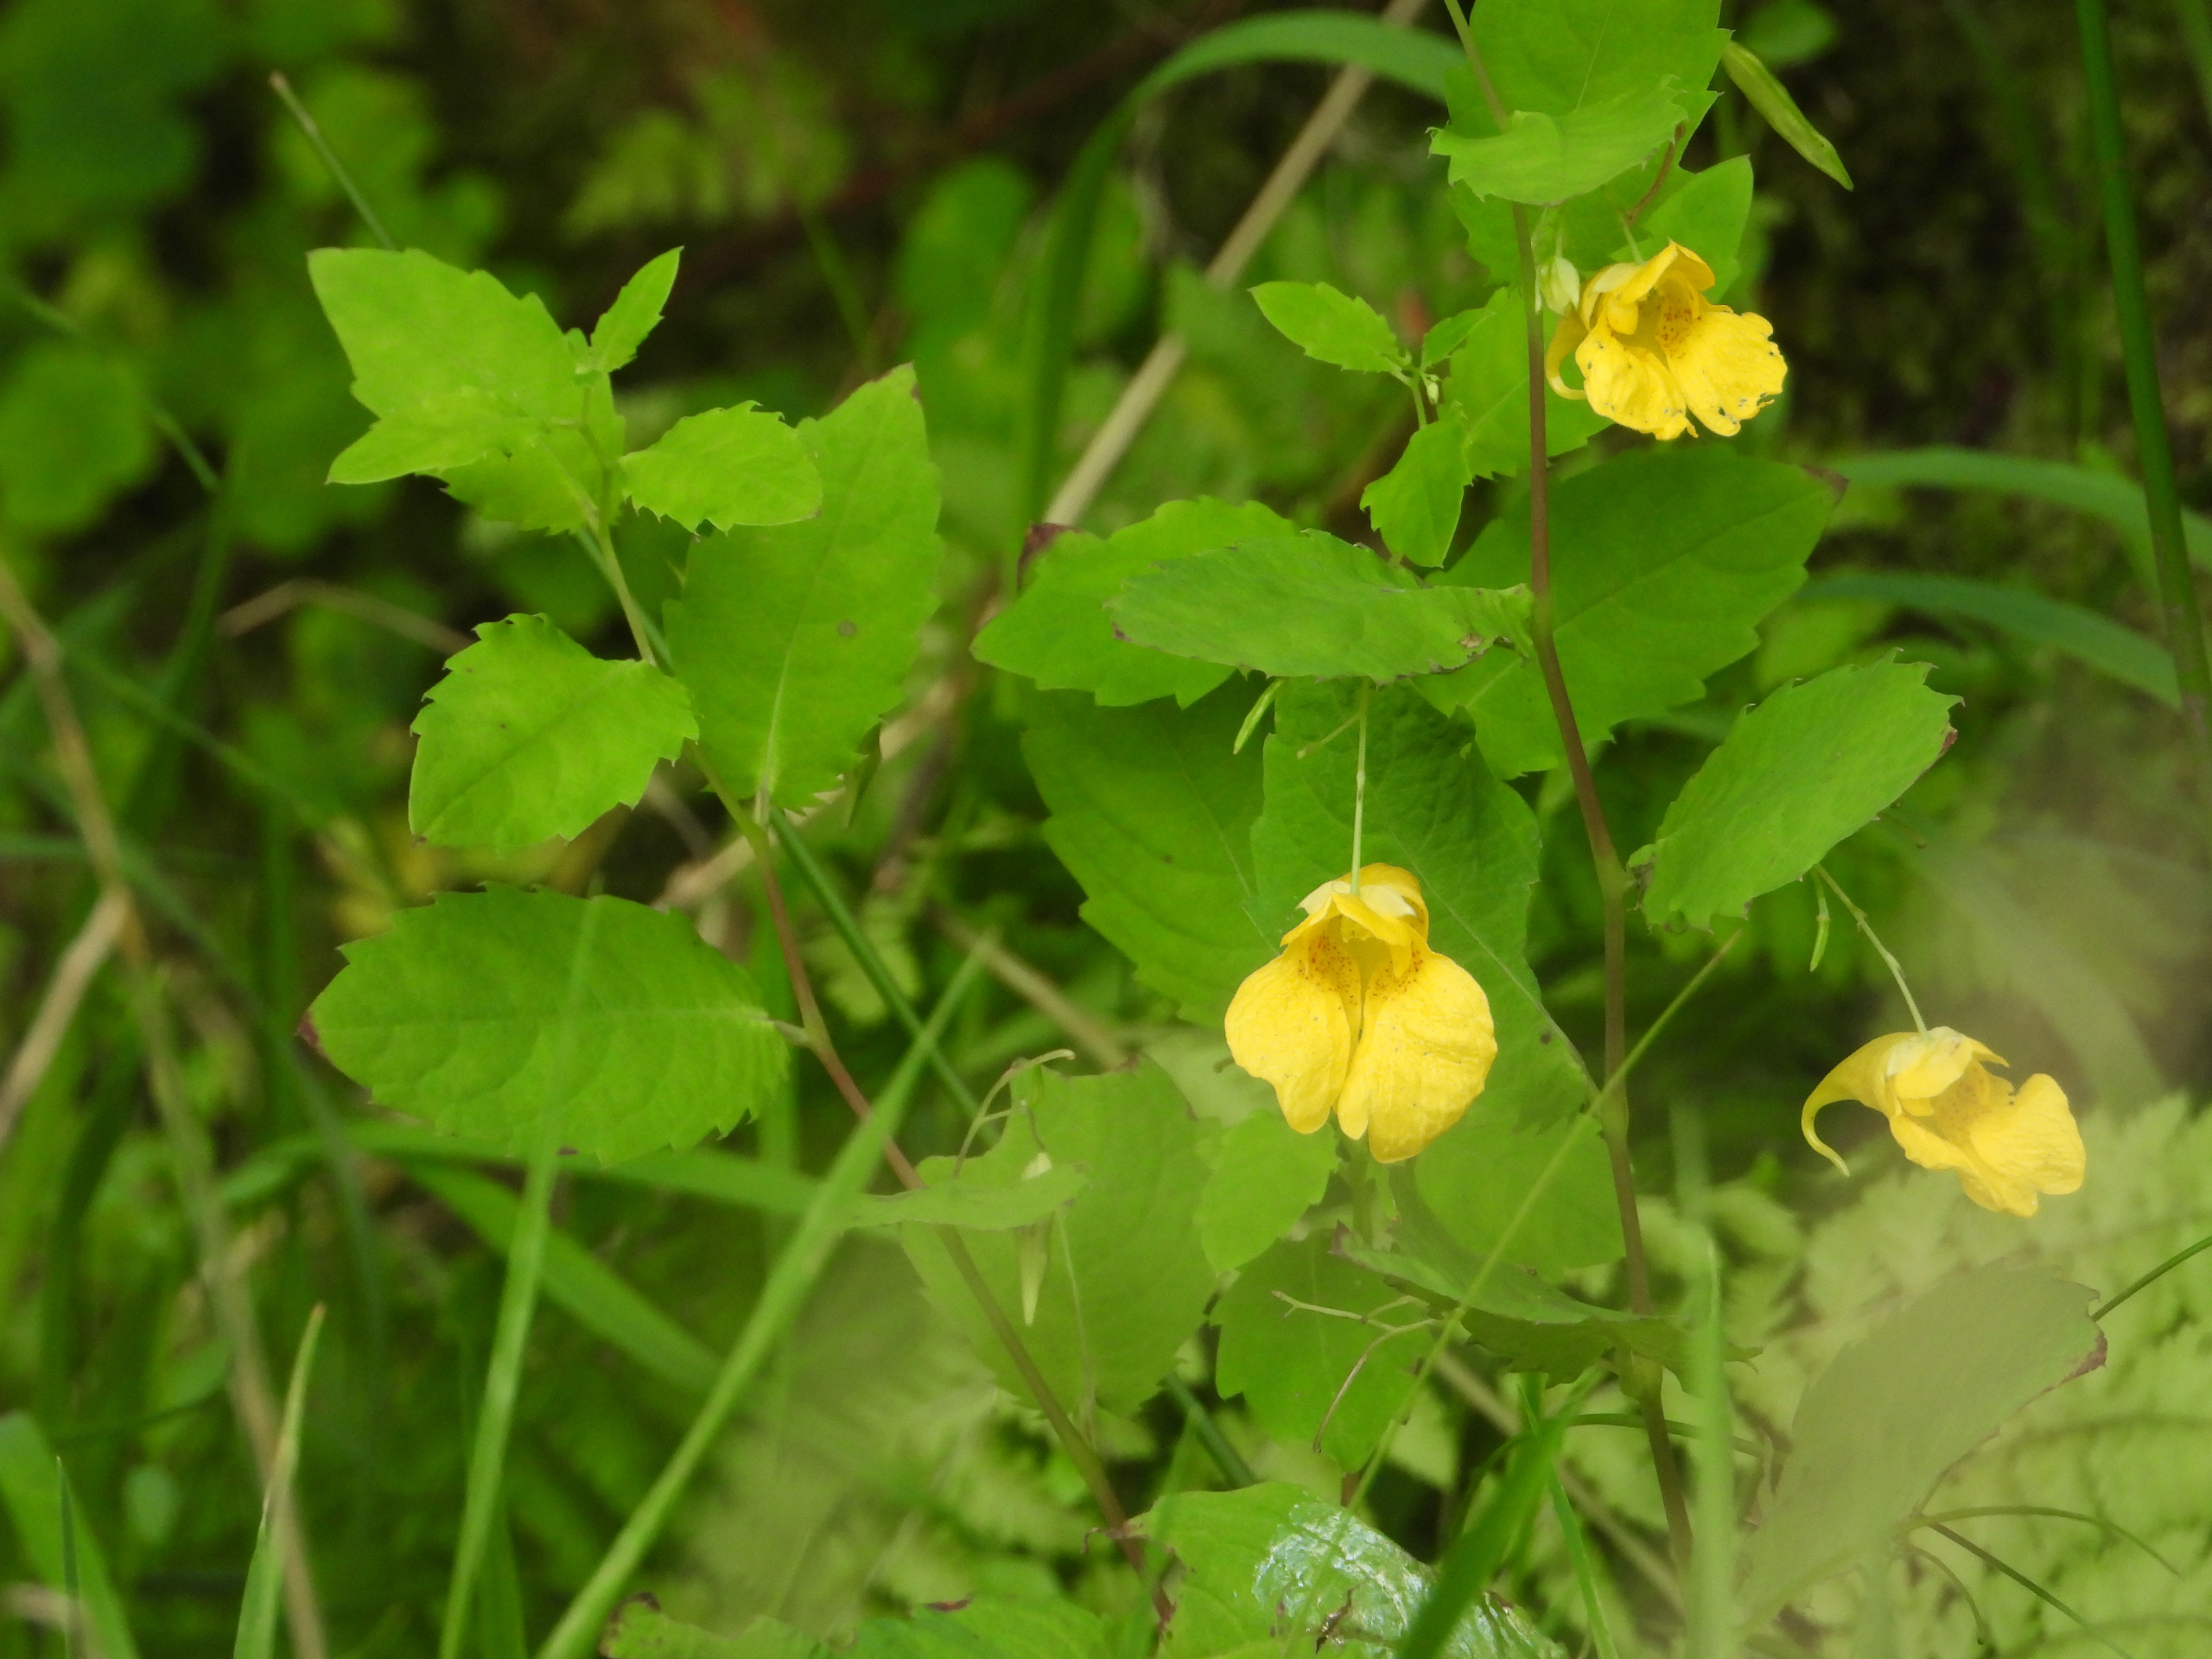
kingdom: Plantae
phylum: Tracheophyta
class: Magnoliopsida
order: Ericales
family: Balsaminaceae
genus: Impatiens
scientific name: Impatiens noli-tangere
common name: Spring-balsamin
